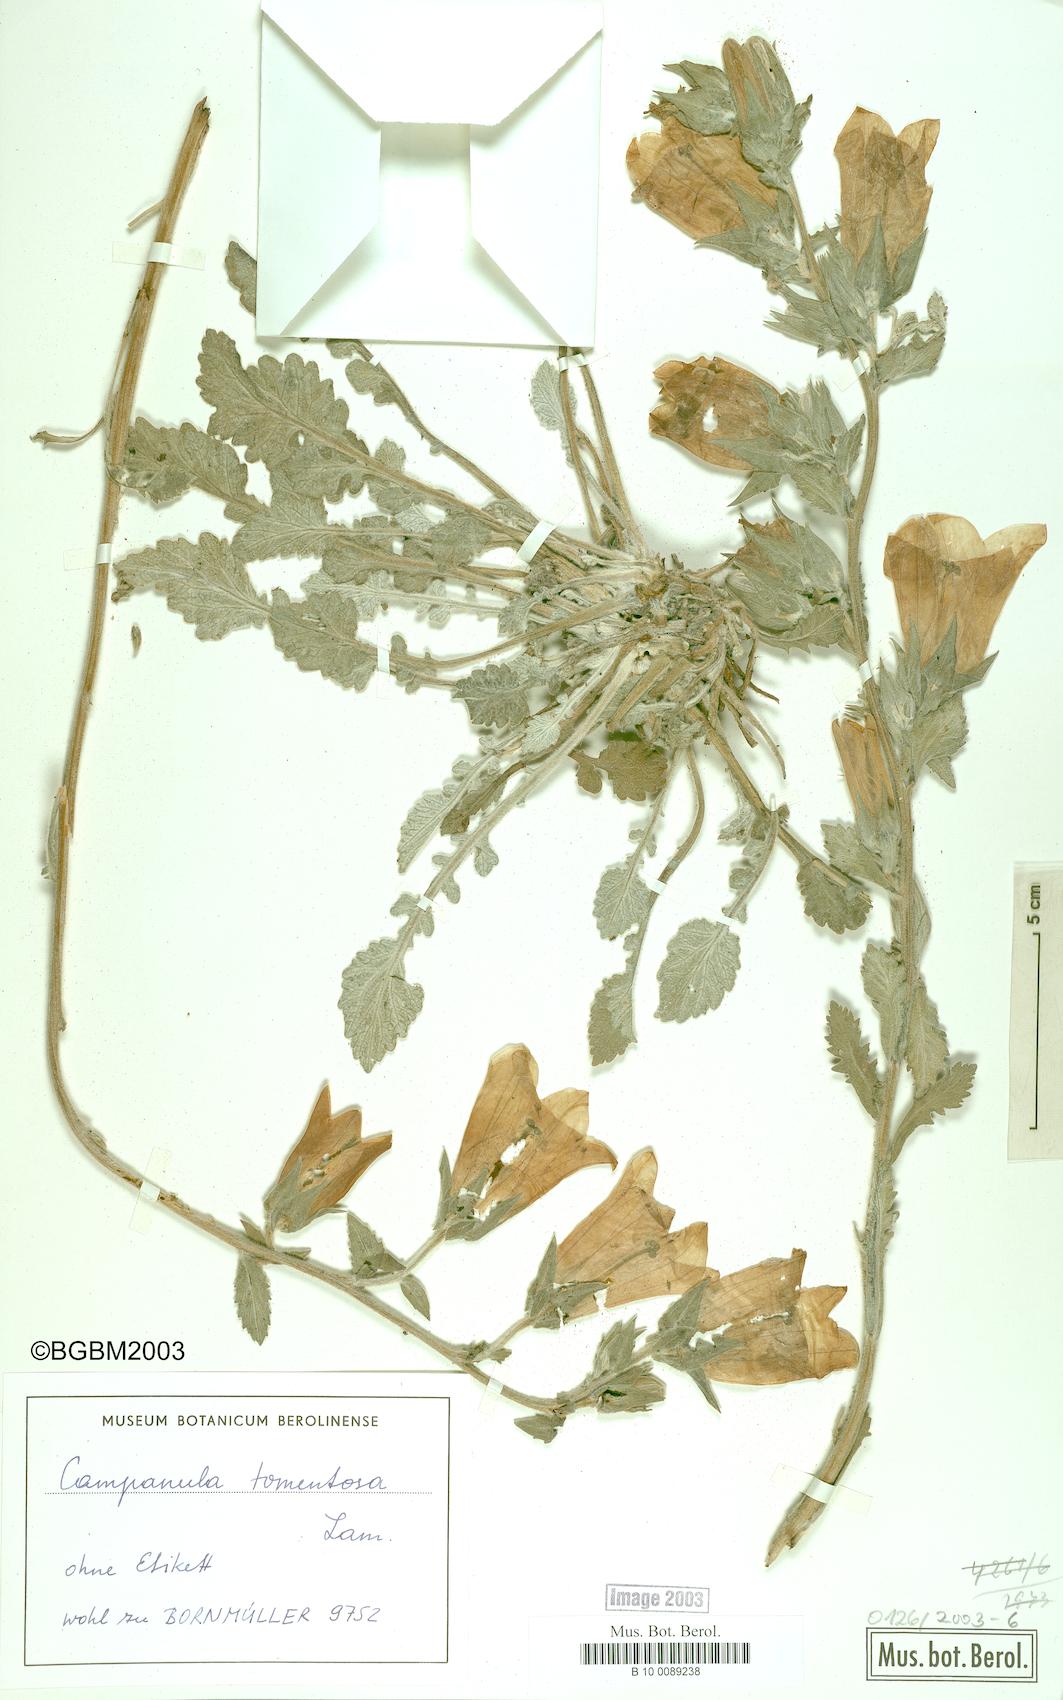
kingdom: Plantae
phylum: Tracheophyta
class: Magnoliopsida
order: Asterales
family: Campanulaceae
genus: Campanula
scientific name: Campanula tomentosa
